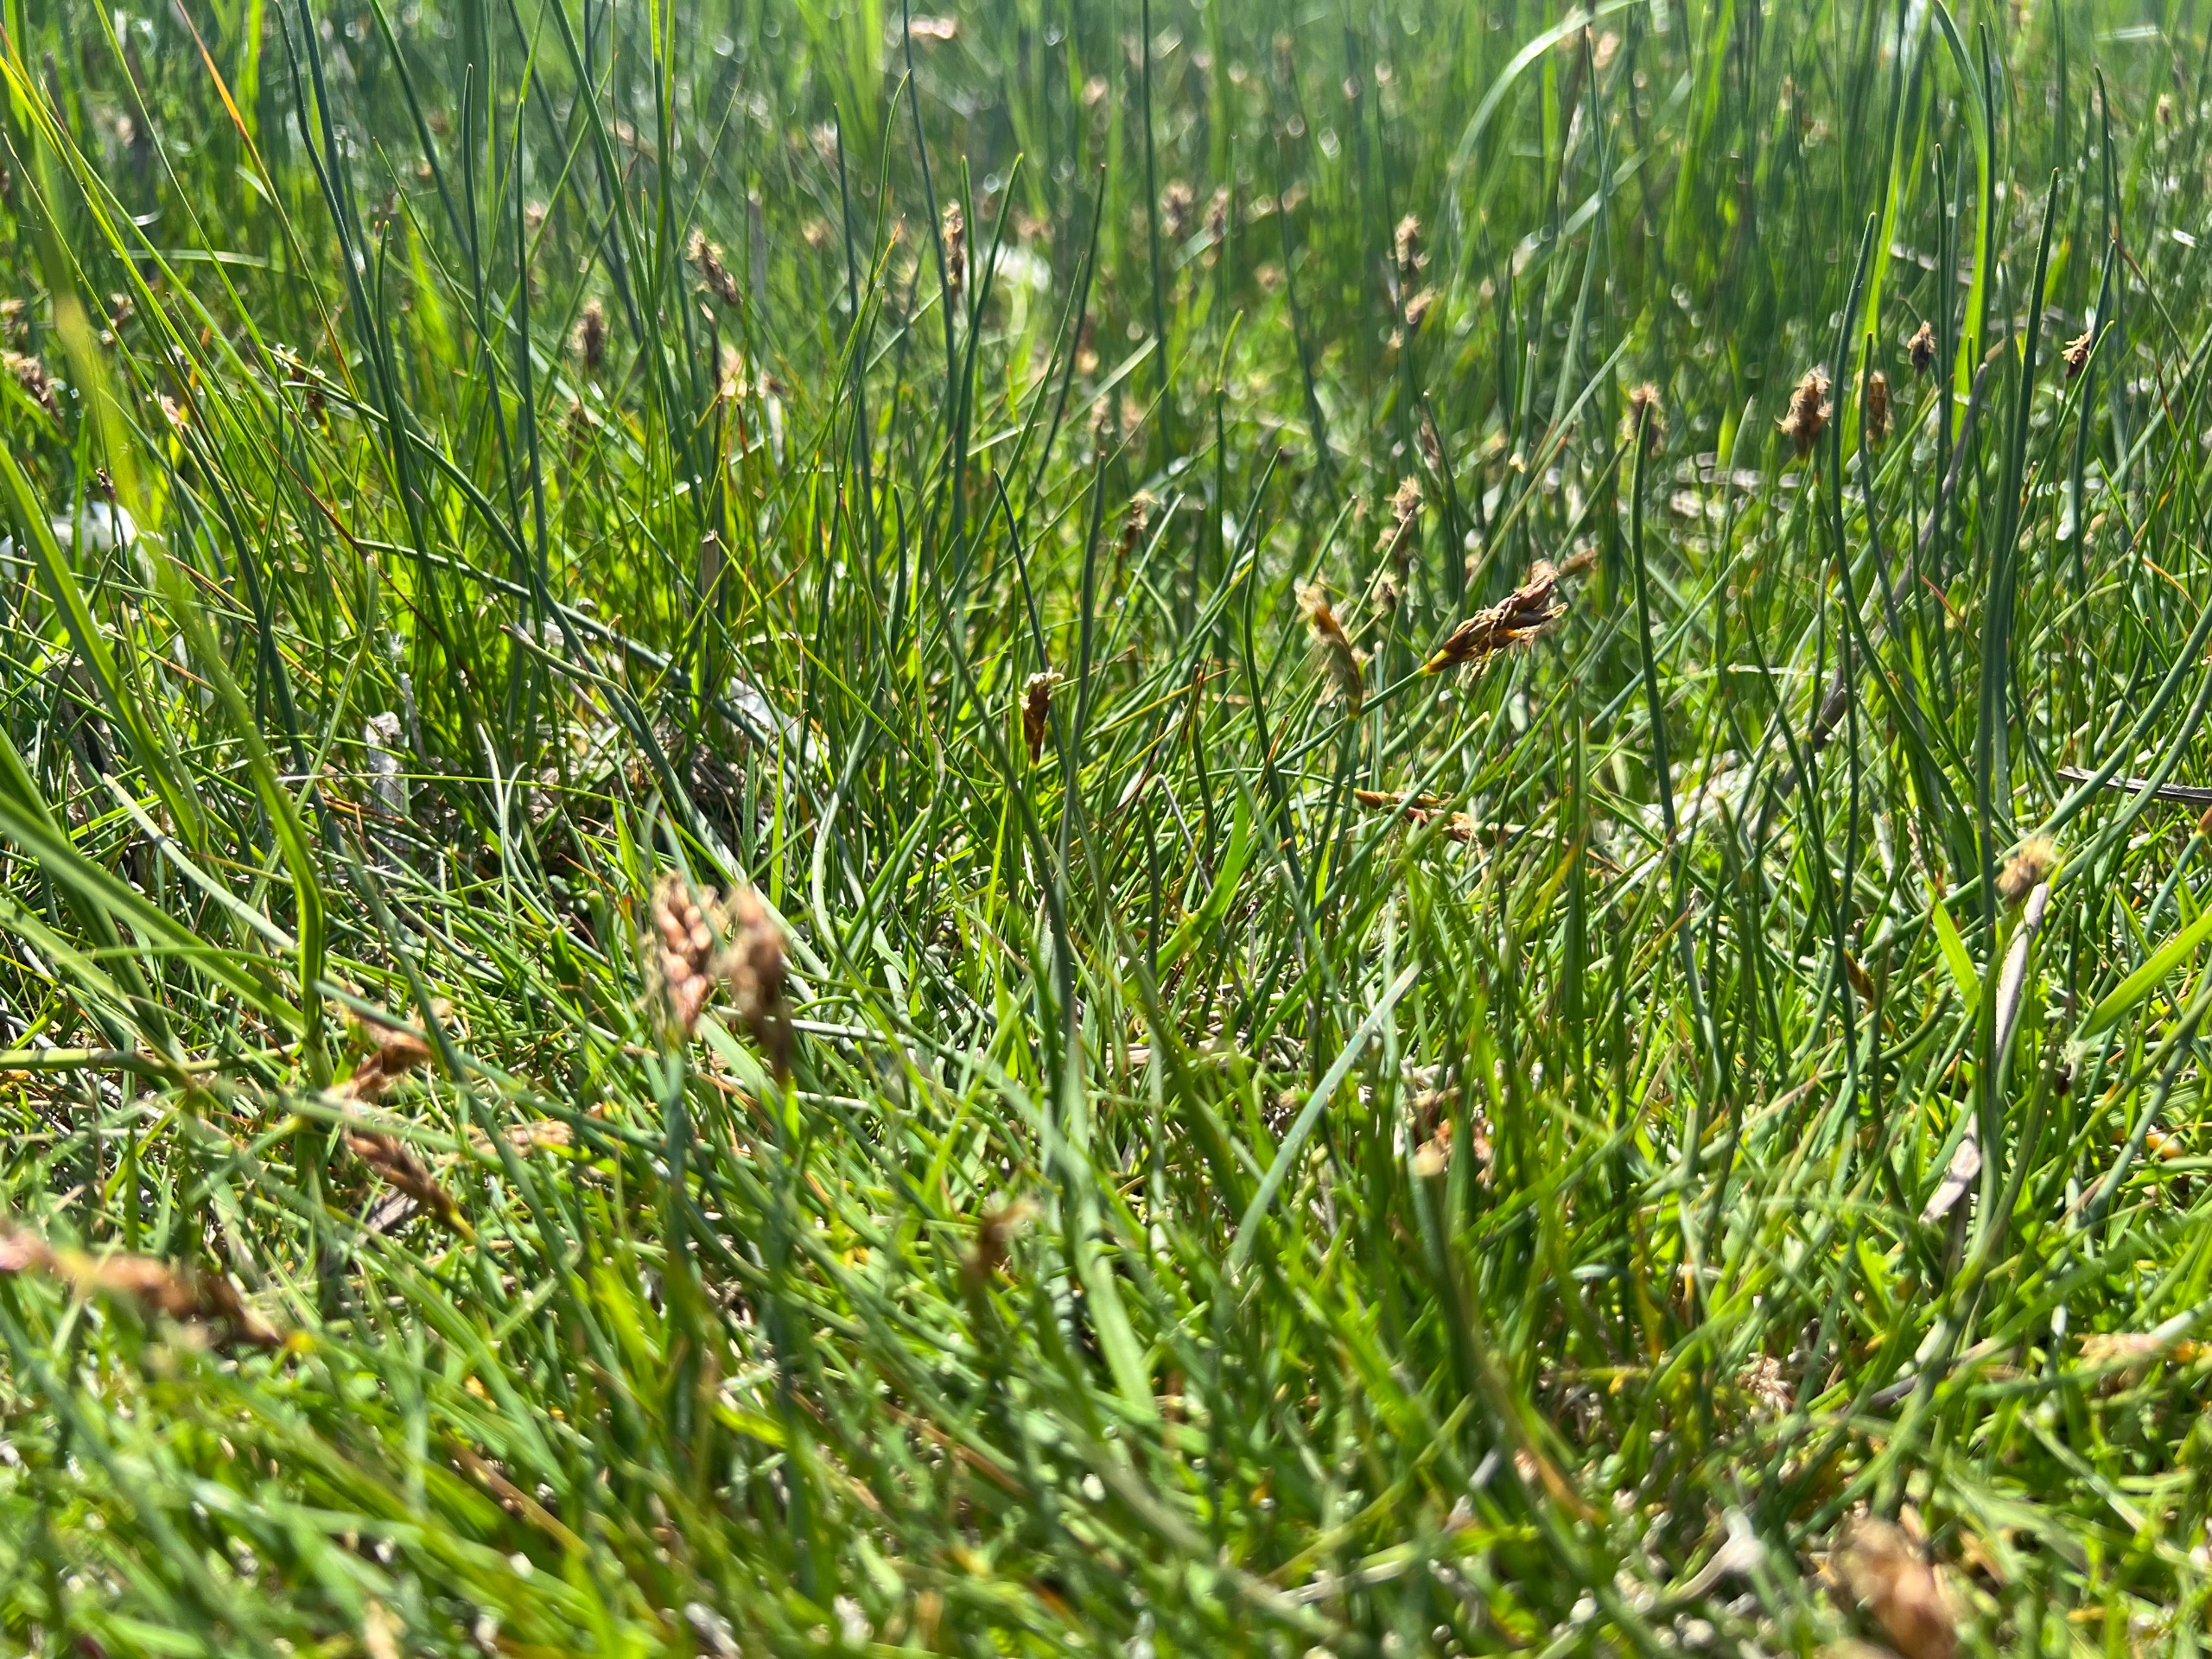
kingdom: Plantae
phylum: Tracheophyta
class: Liliopsida
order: Poales
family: Cyperaceae
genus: Blysmus
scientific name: Blysmus rufus
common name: Rødbrun kogleaks
